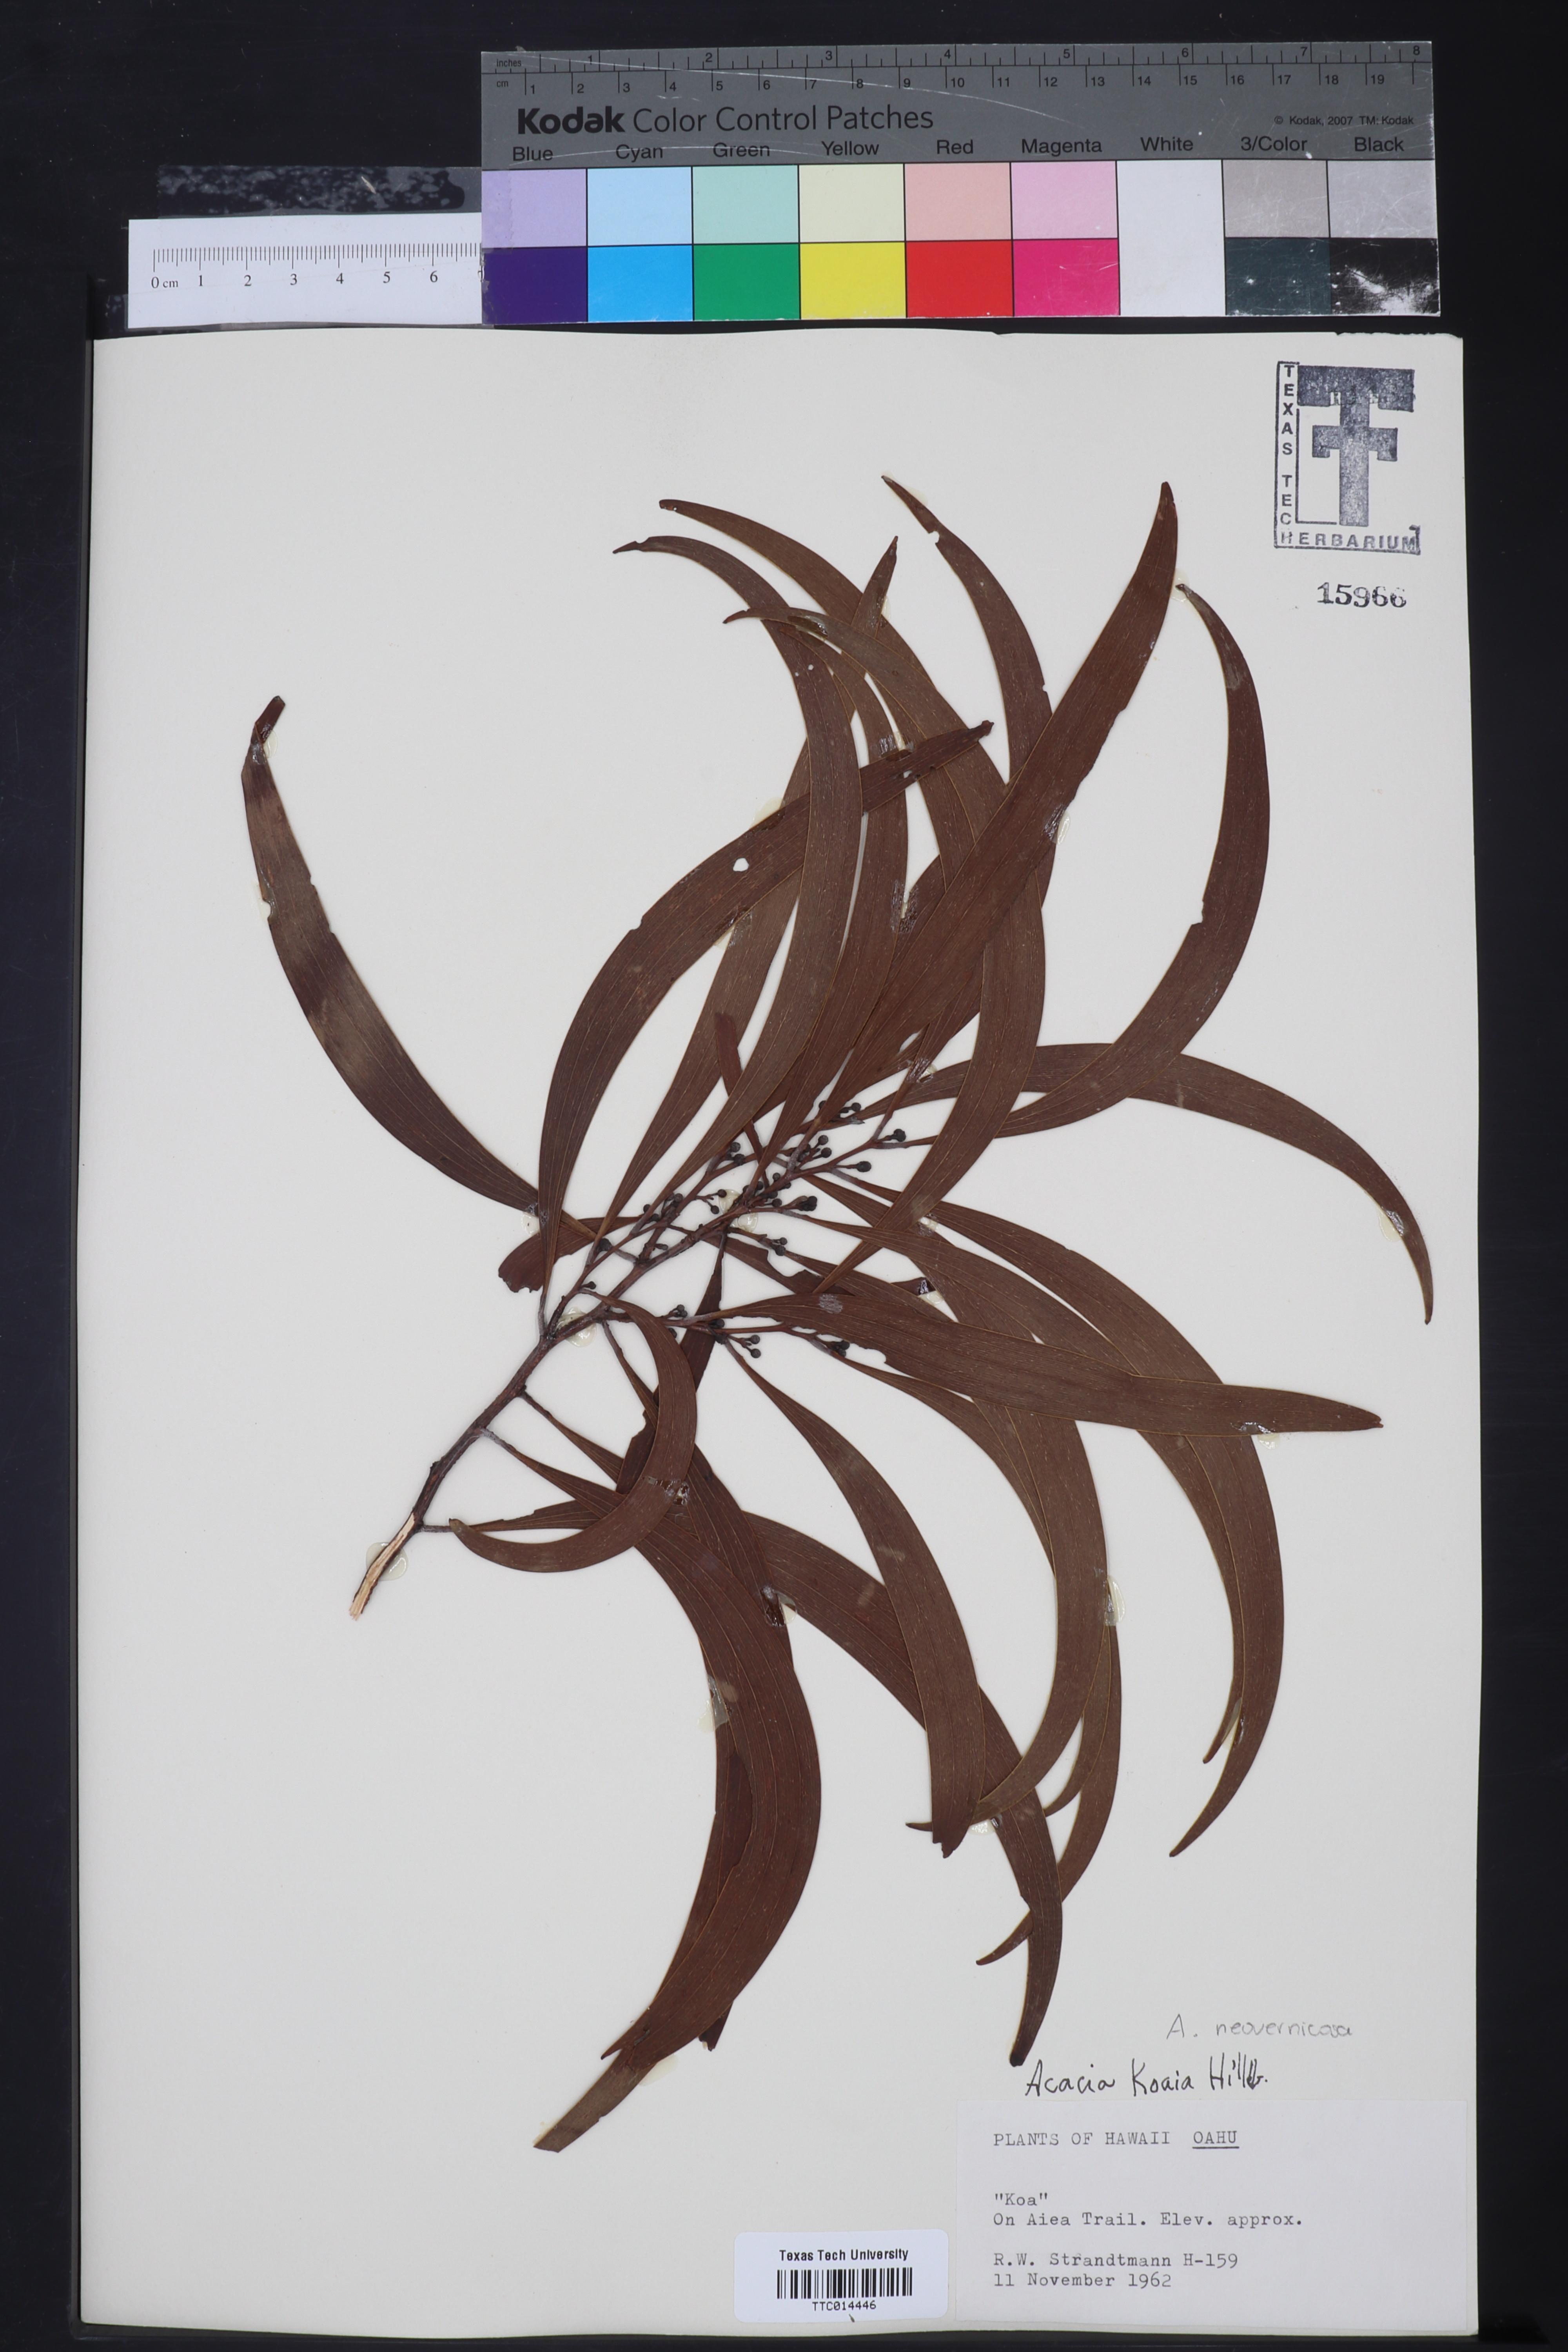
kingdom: Plantae
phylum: Tracheophyta
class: Magnoliopsida
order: Fabales
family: Fabaceae
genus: Acacia
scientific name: Acacia koa
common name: Gray koa
